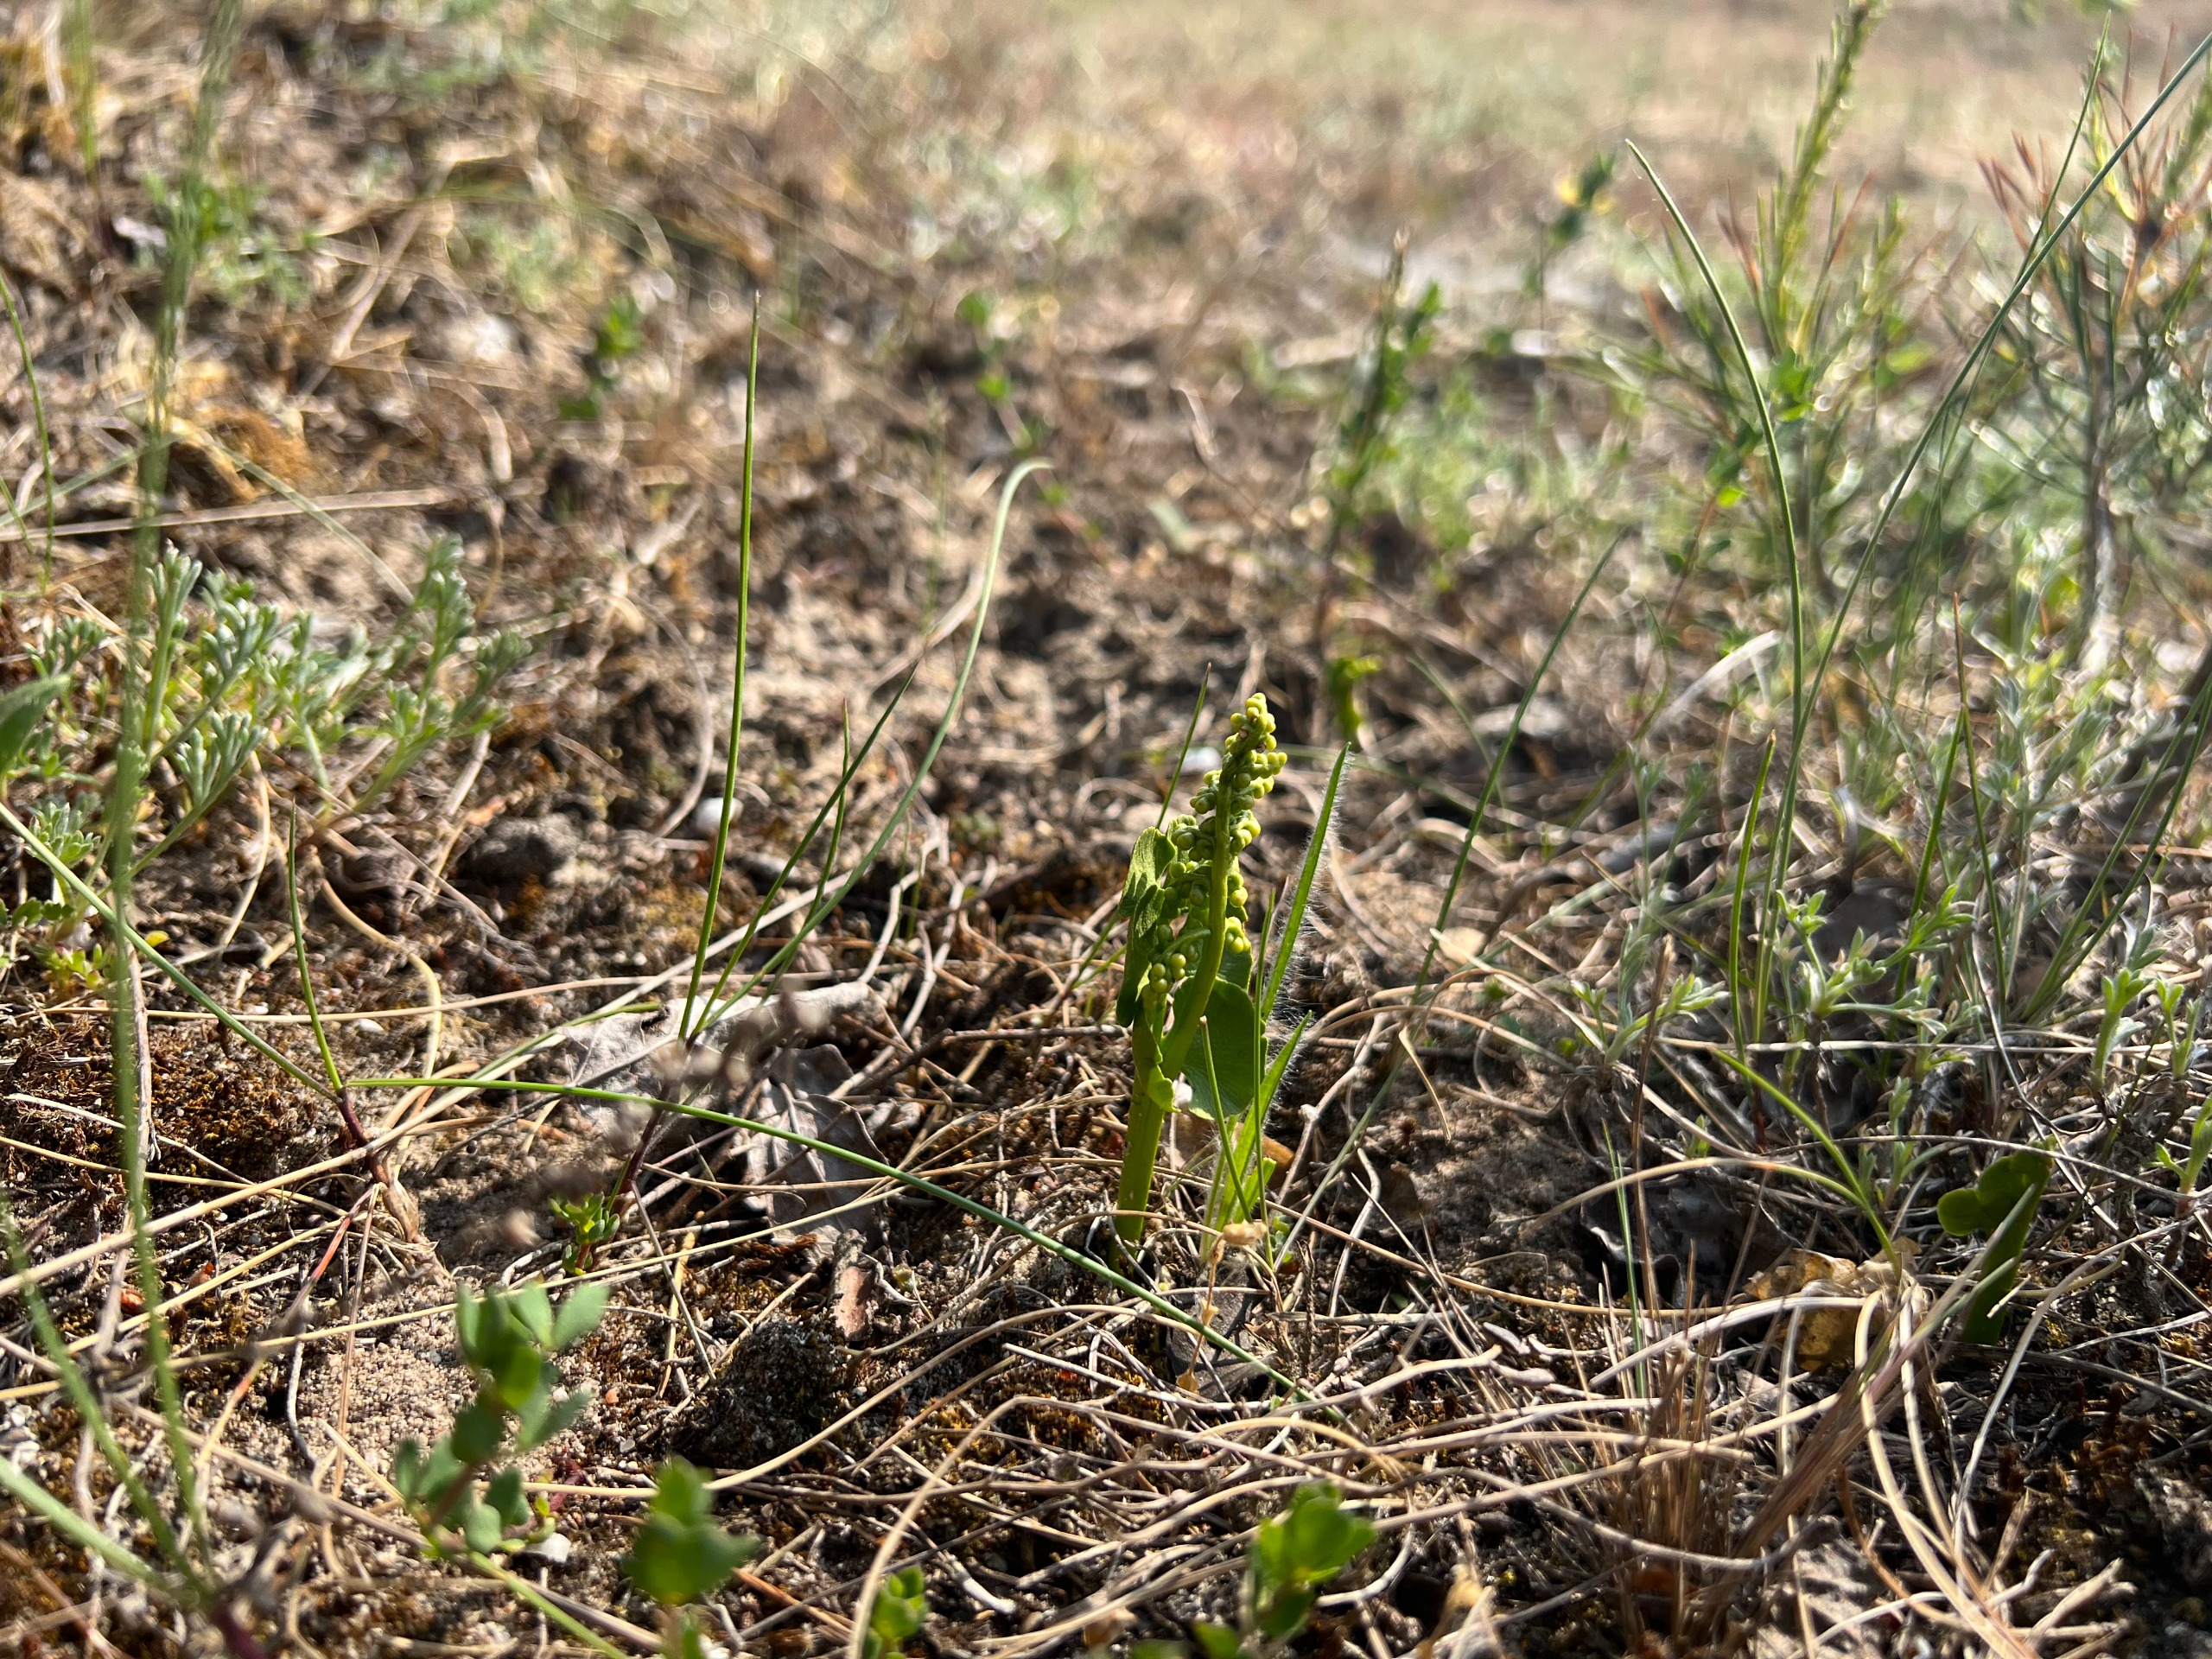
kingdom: Plantae
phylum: Tracheophyta
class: Polypodiopsida
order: Ophioglossales
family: Ophioglossaceae
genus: Botrychium
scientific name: Botrychium lunaria
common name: Almindelig månerude
